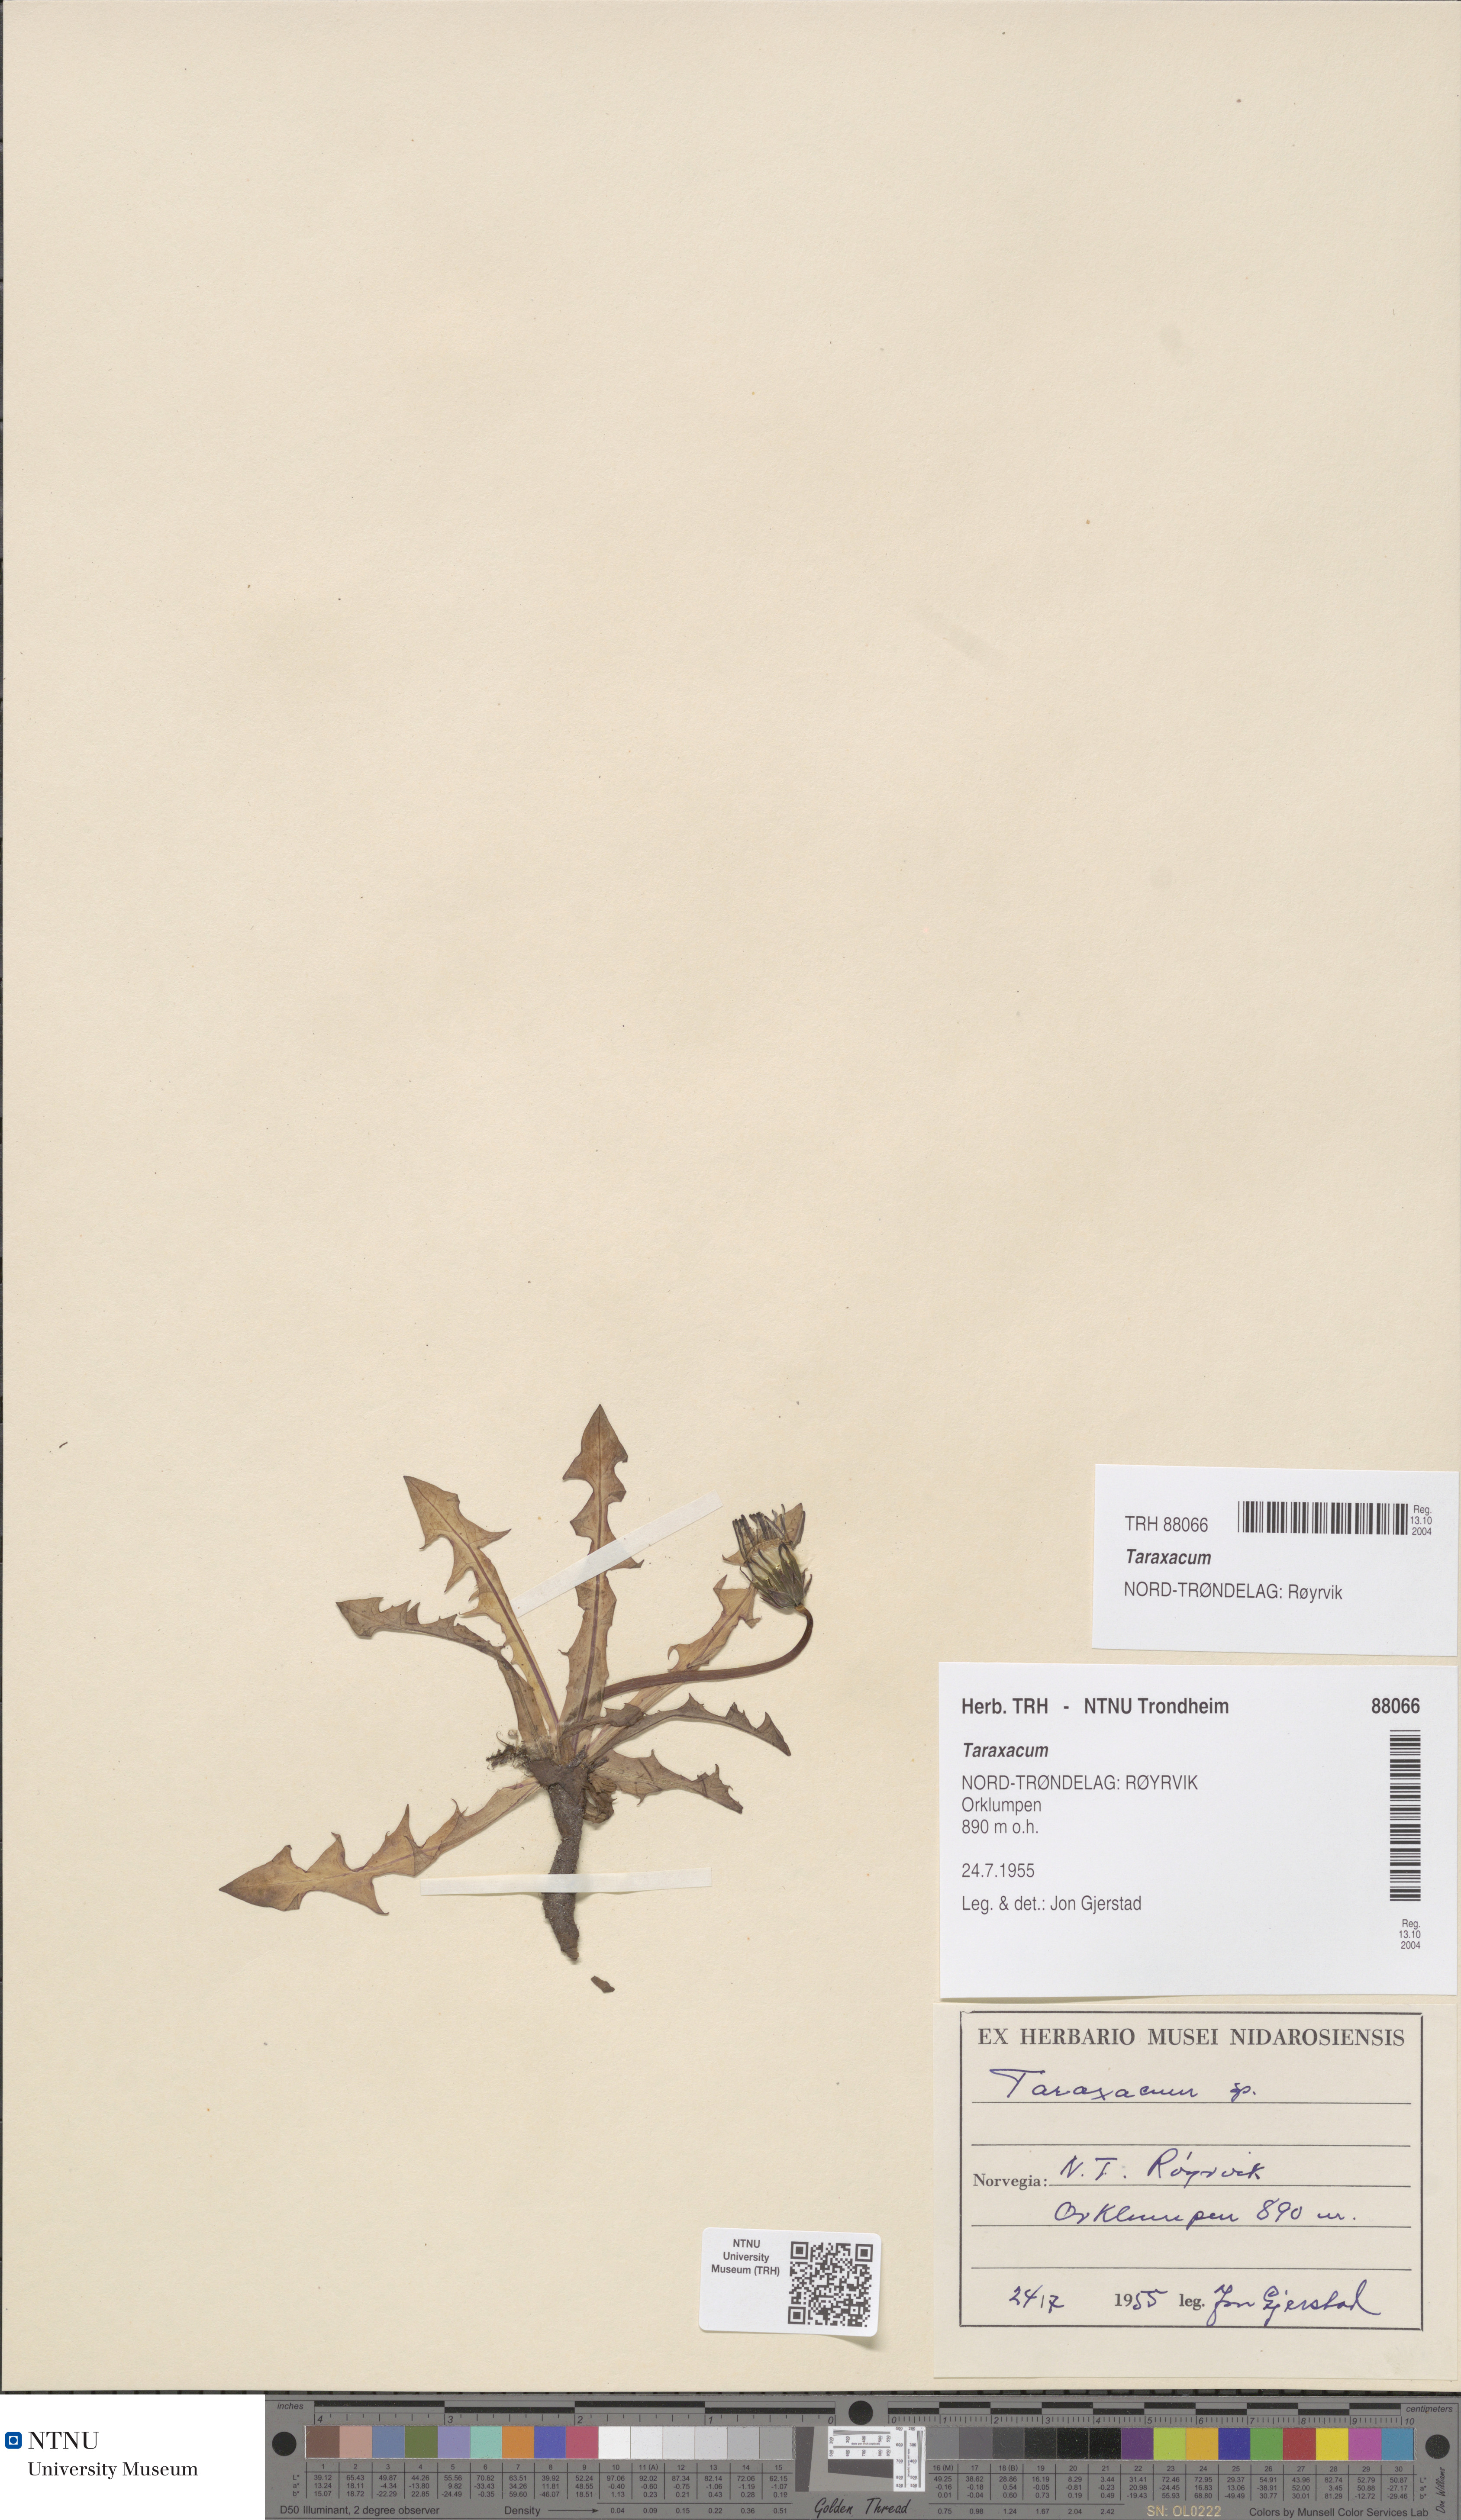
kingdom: Plantae
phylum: Tracheophyta
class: Magnoliopsida
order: Asterales
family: Asteraceae
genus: Taraxacum
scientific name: Taraxacum
